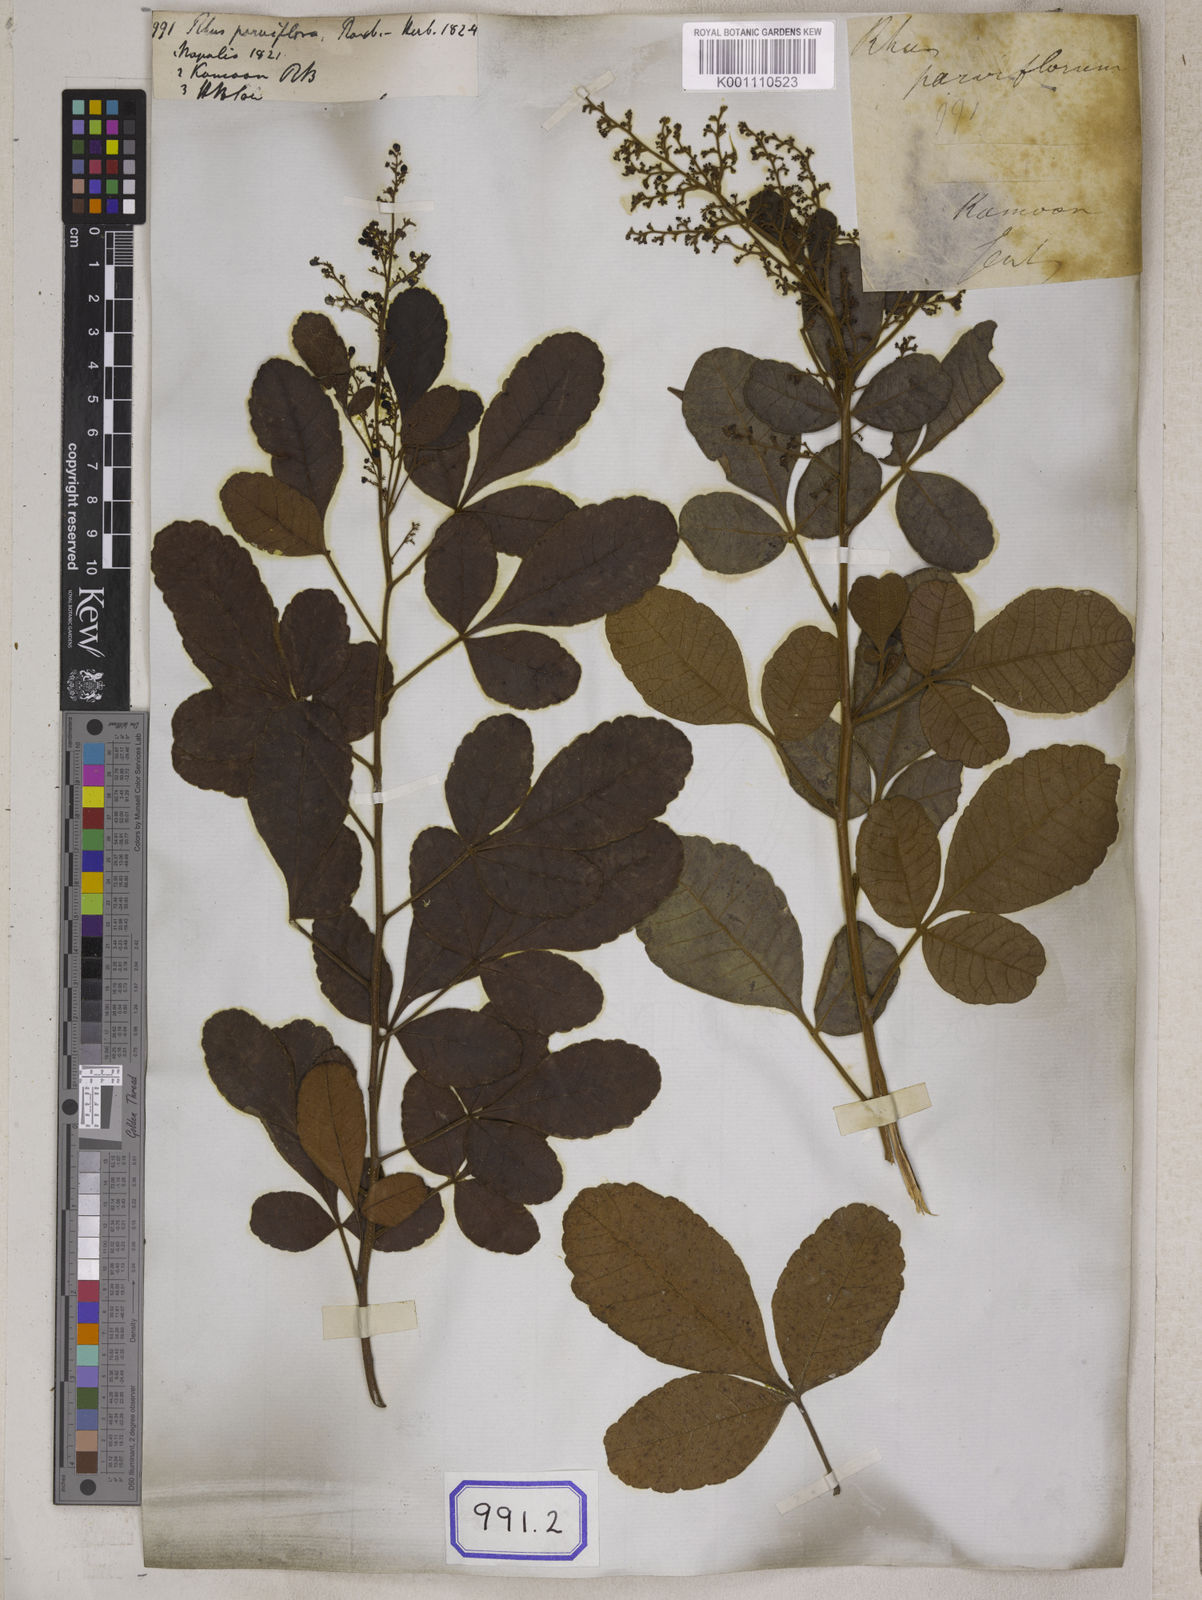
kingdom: Plantae
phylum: Tracheophyta
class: Magnoliopsida
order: Sapindales
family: Anacardiaceae
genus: Searsia
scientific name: Searsia parviflora
